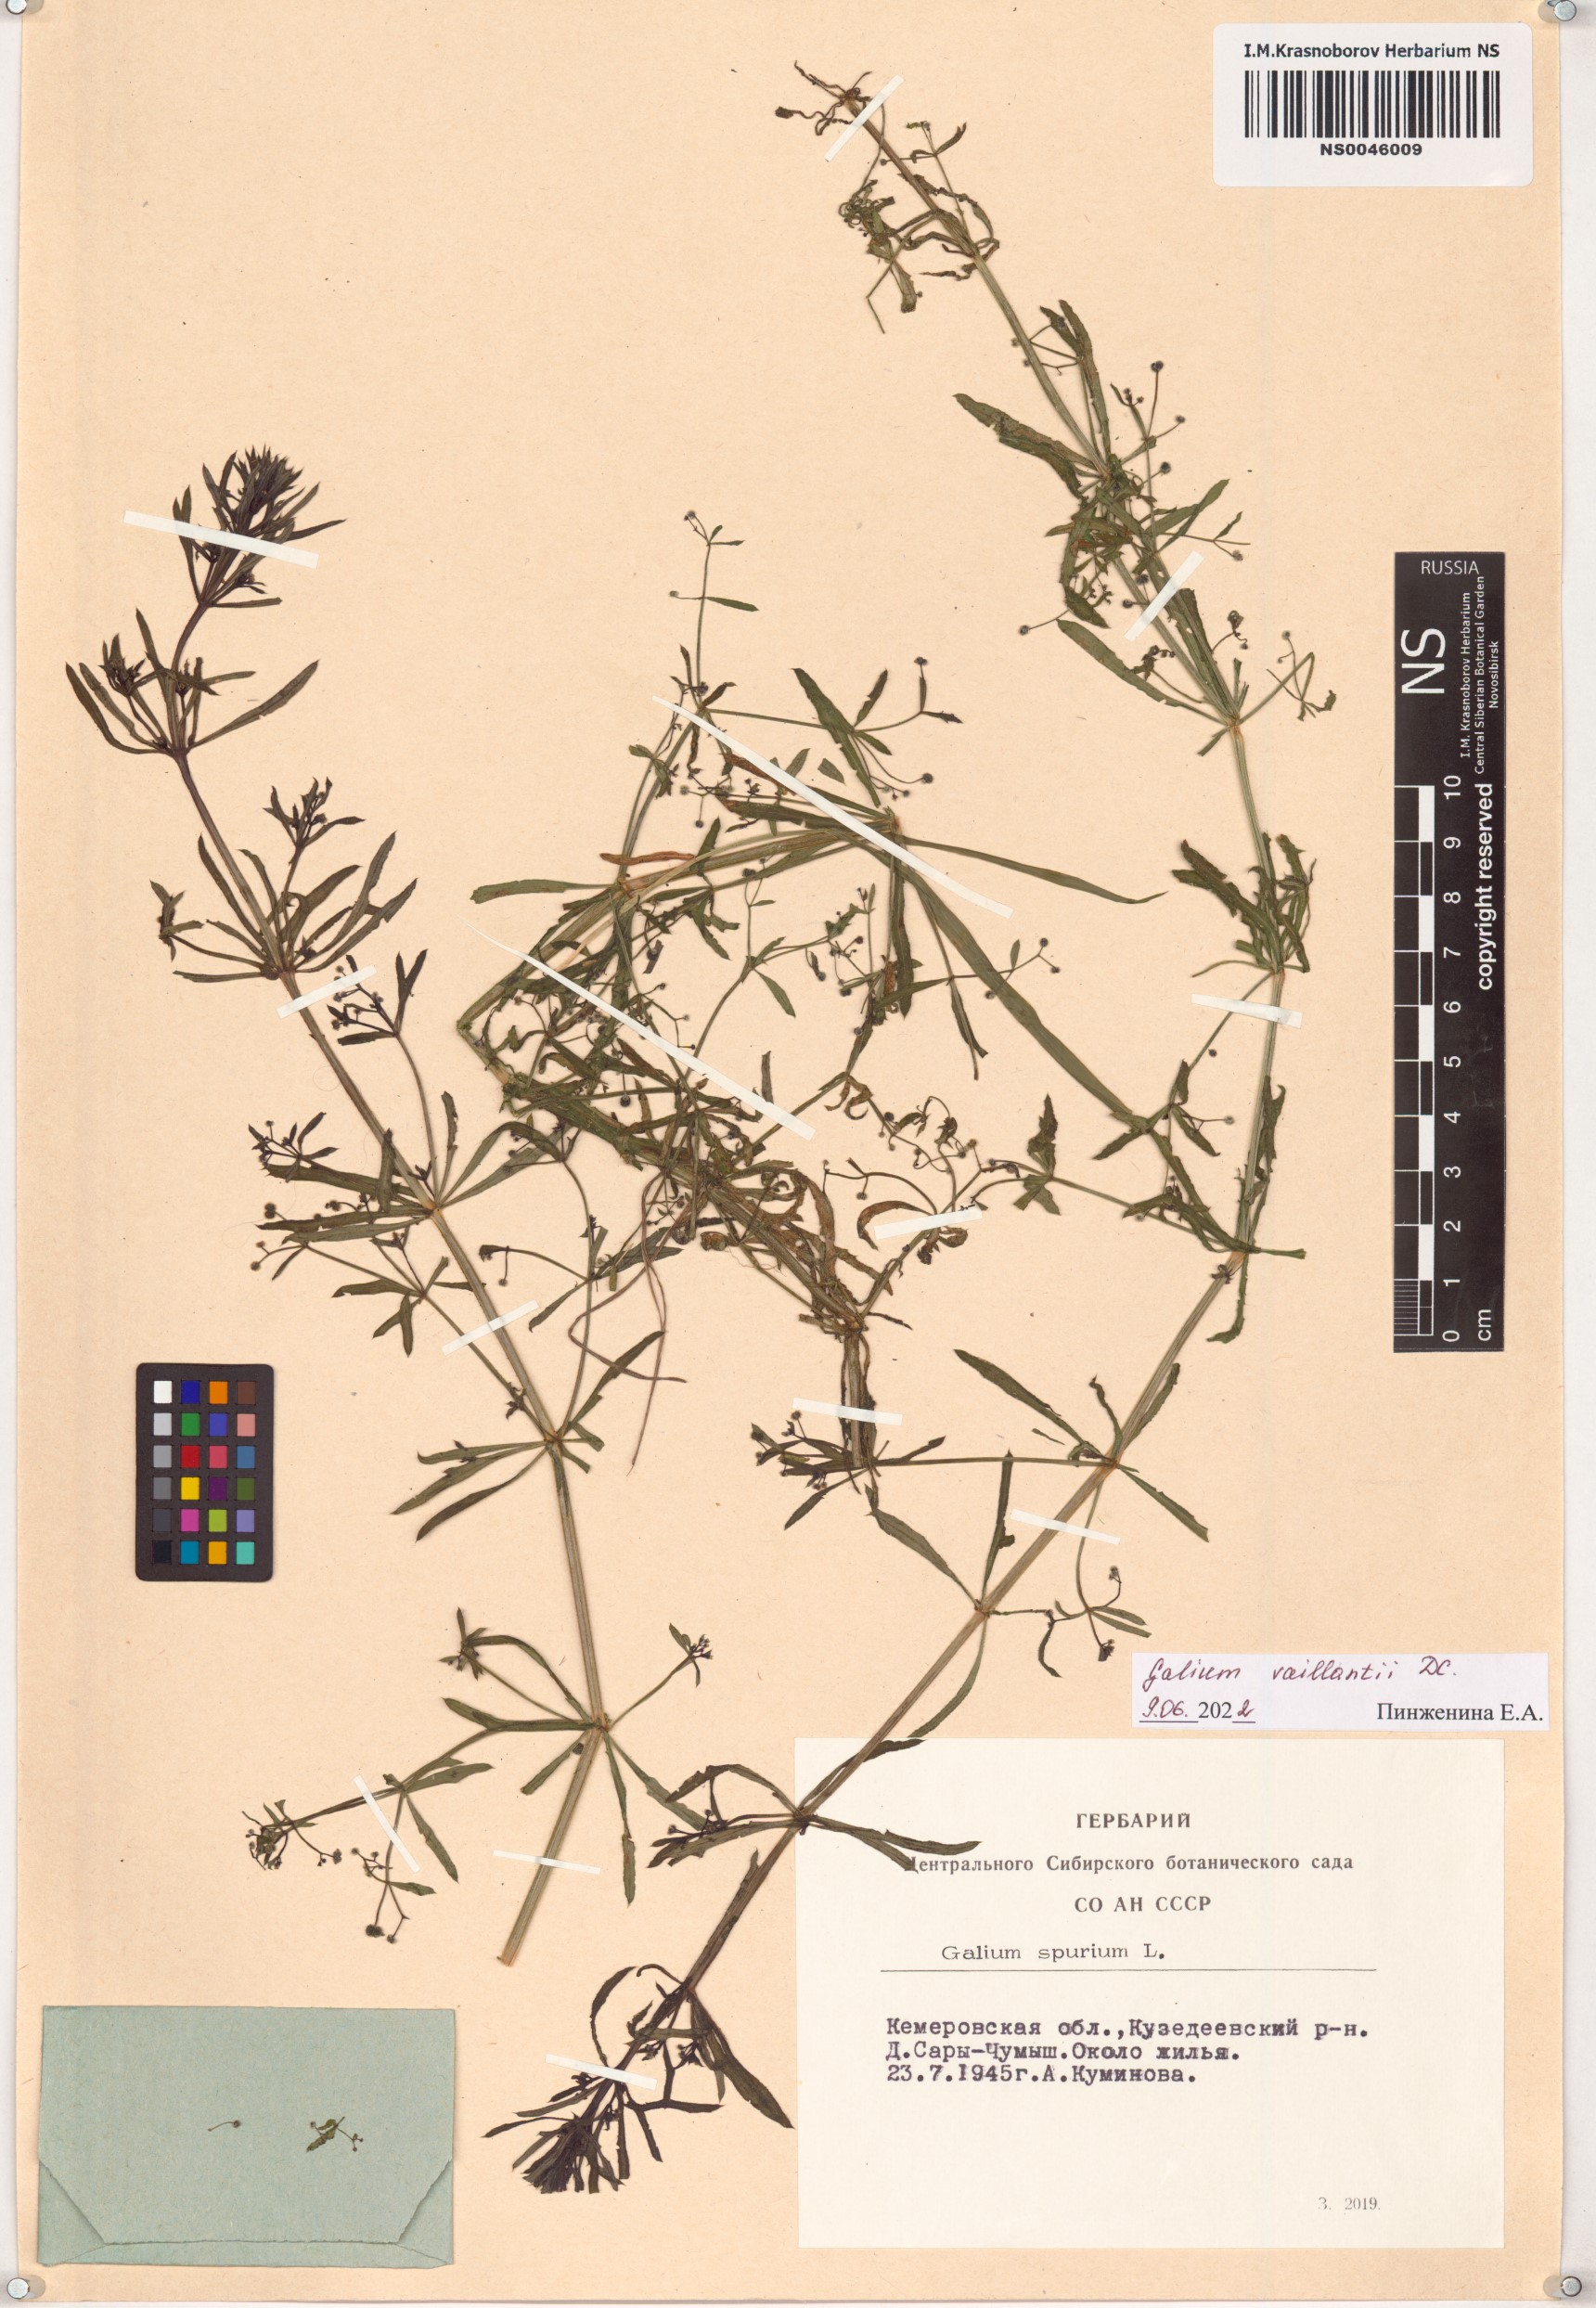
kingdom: Plantae
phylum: Tracheophyta
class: Magnoliopsida
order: Gentianales
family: Rubiaceae
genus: Galium
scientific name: Galium spurium
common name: False cleavers
